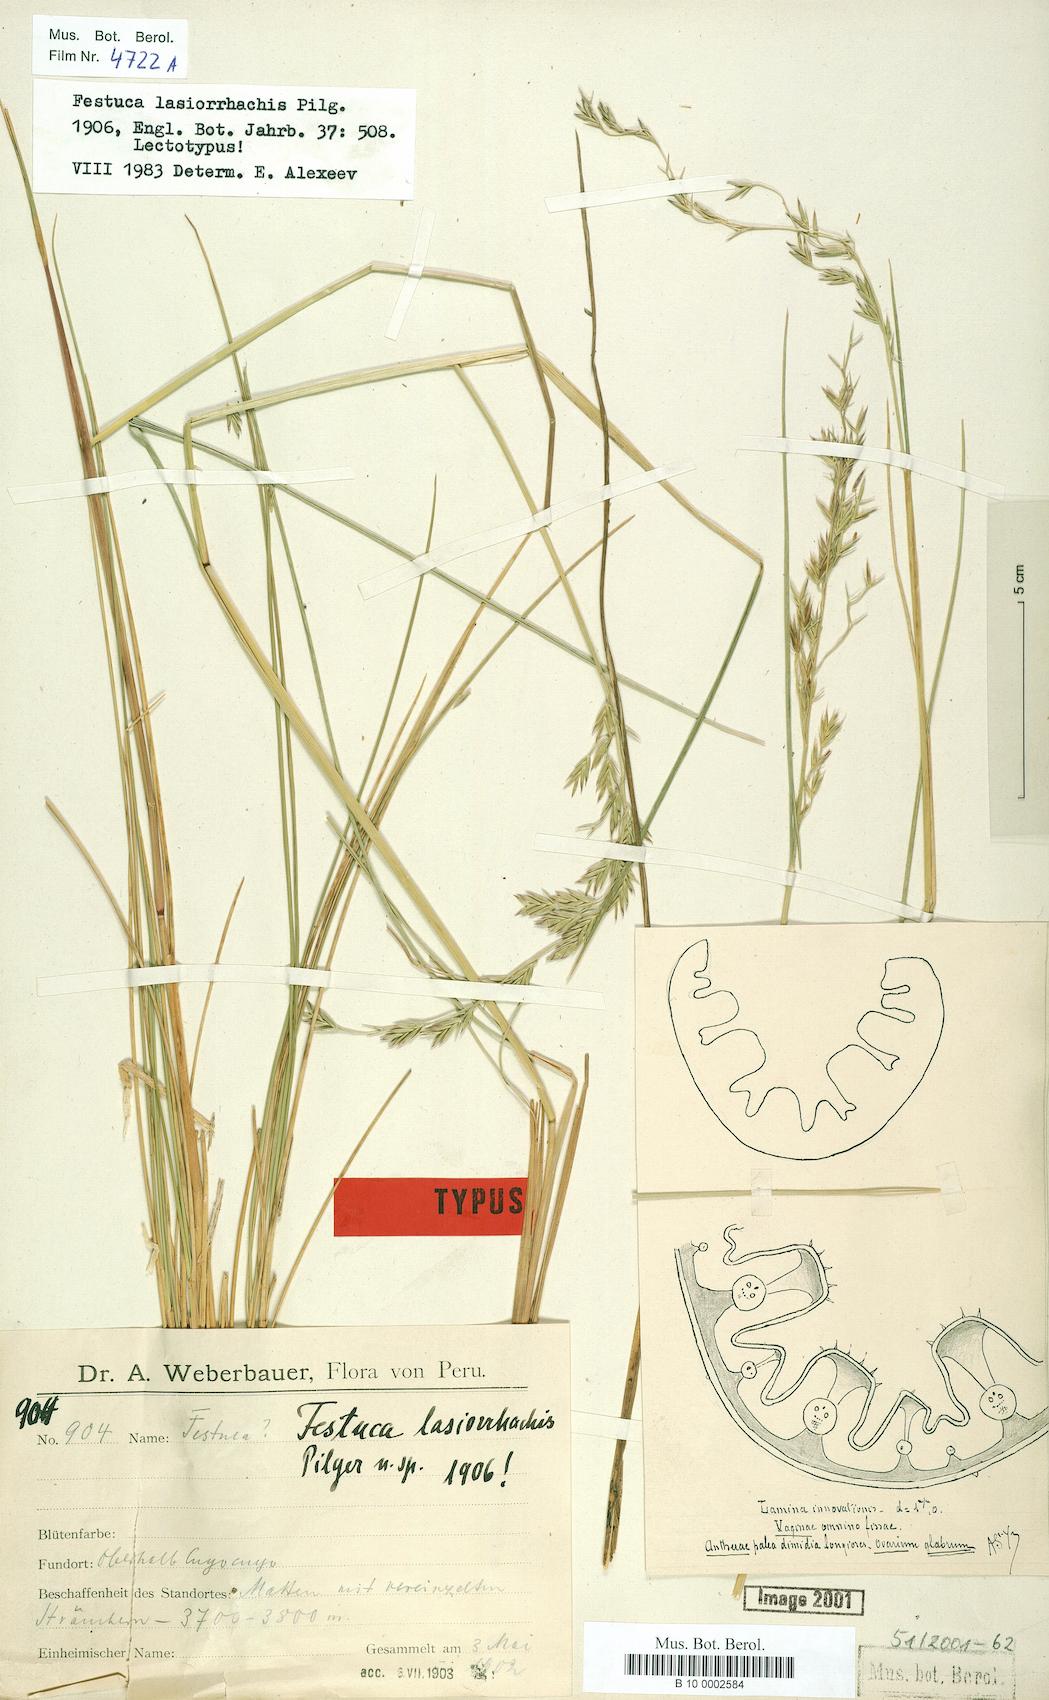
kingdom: Plantae
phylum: Tracheophyta
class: Liliopsida
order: Poales
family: Poaceae
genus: Festuca
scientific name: Festuca
